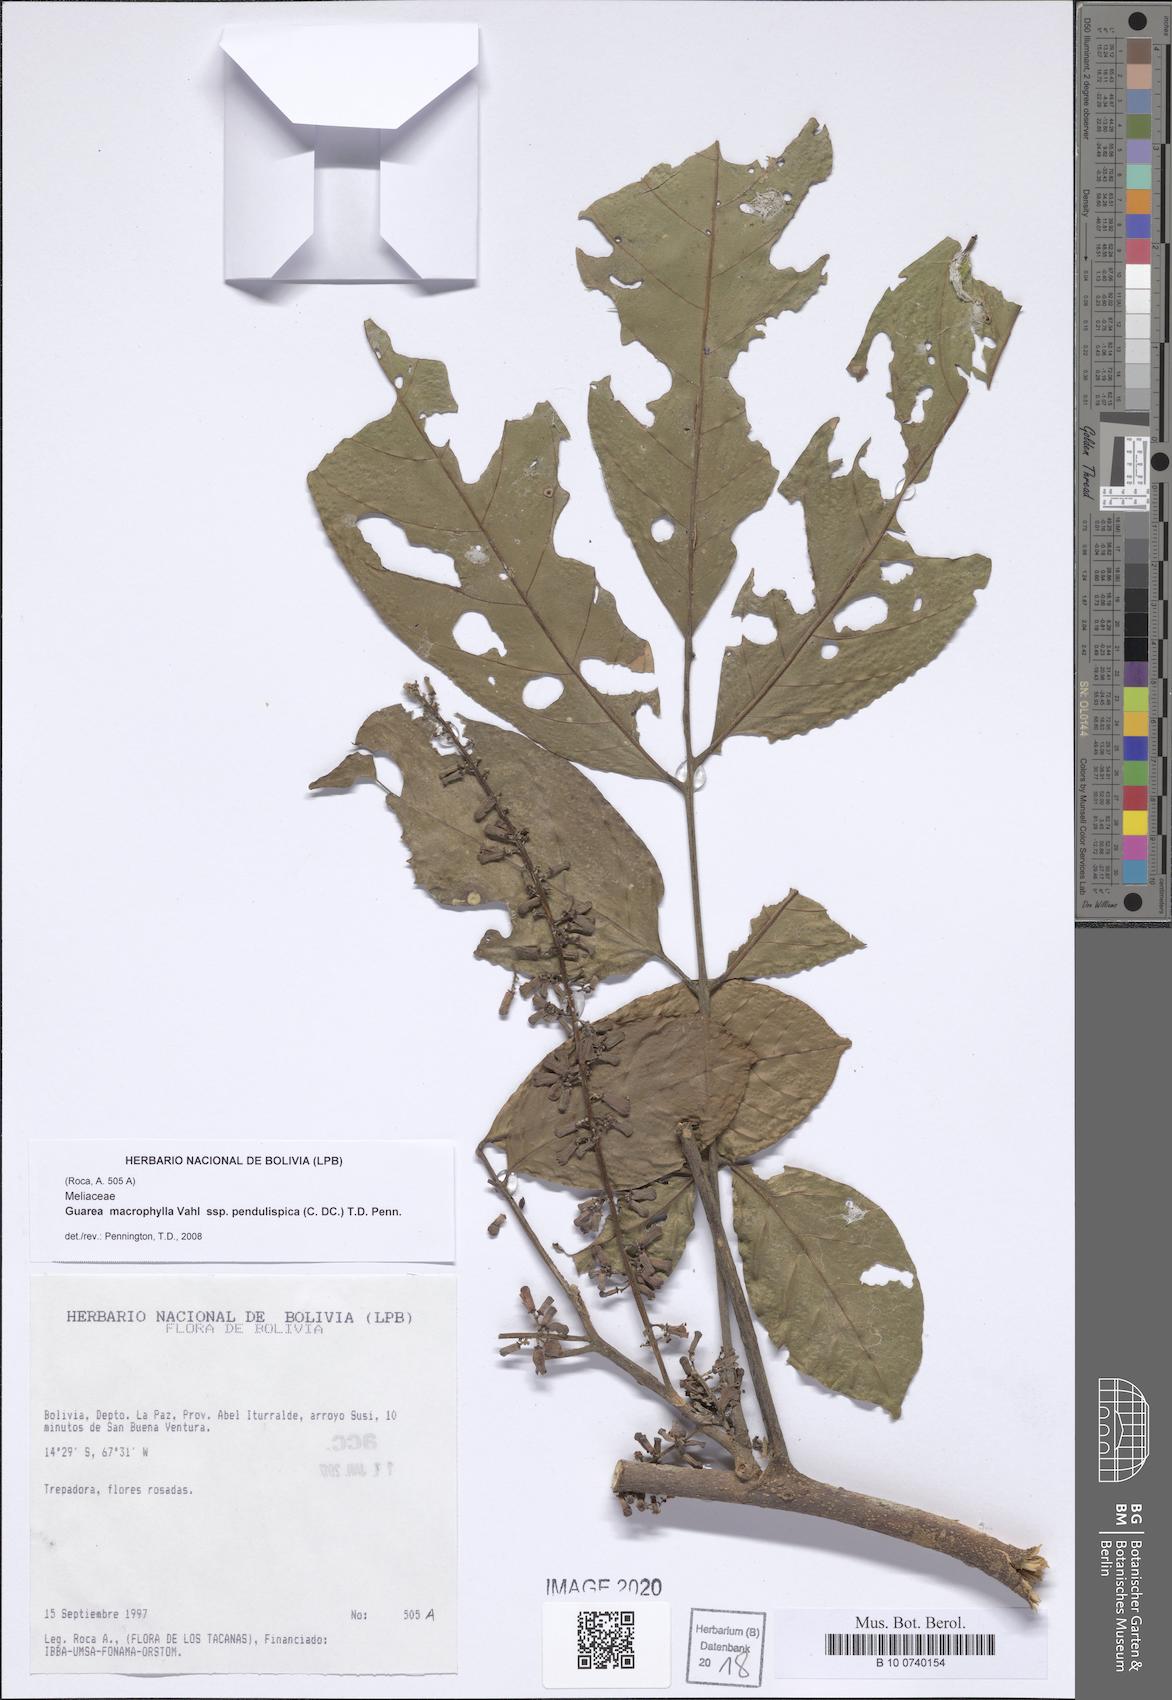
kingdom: Plantae
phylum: Tracheophyta
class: Magnoliopsida
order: Sapindales
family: Meliaceae
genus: Guarea
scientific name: Guarea macrophylla
